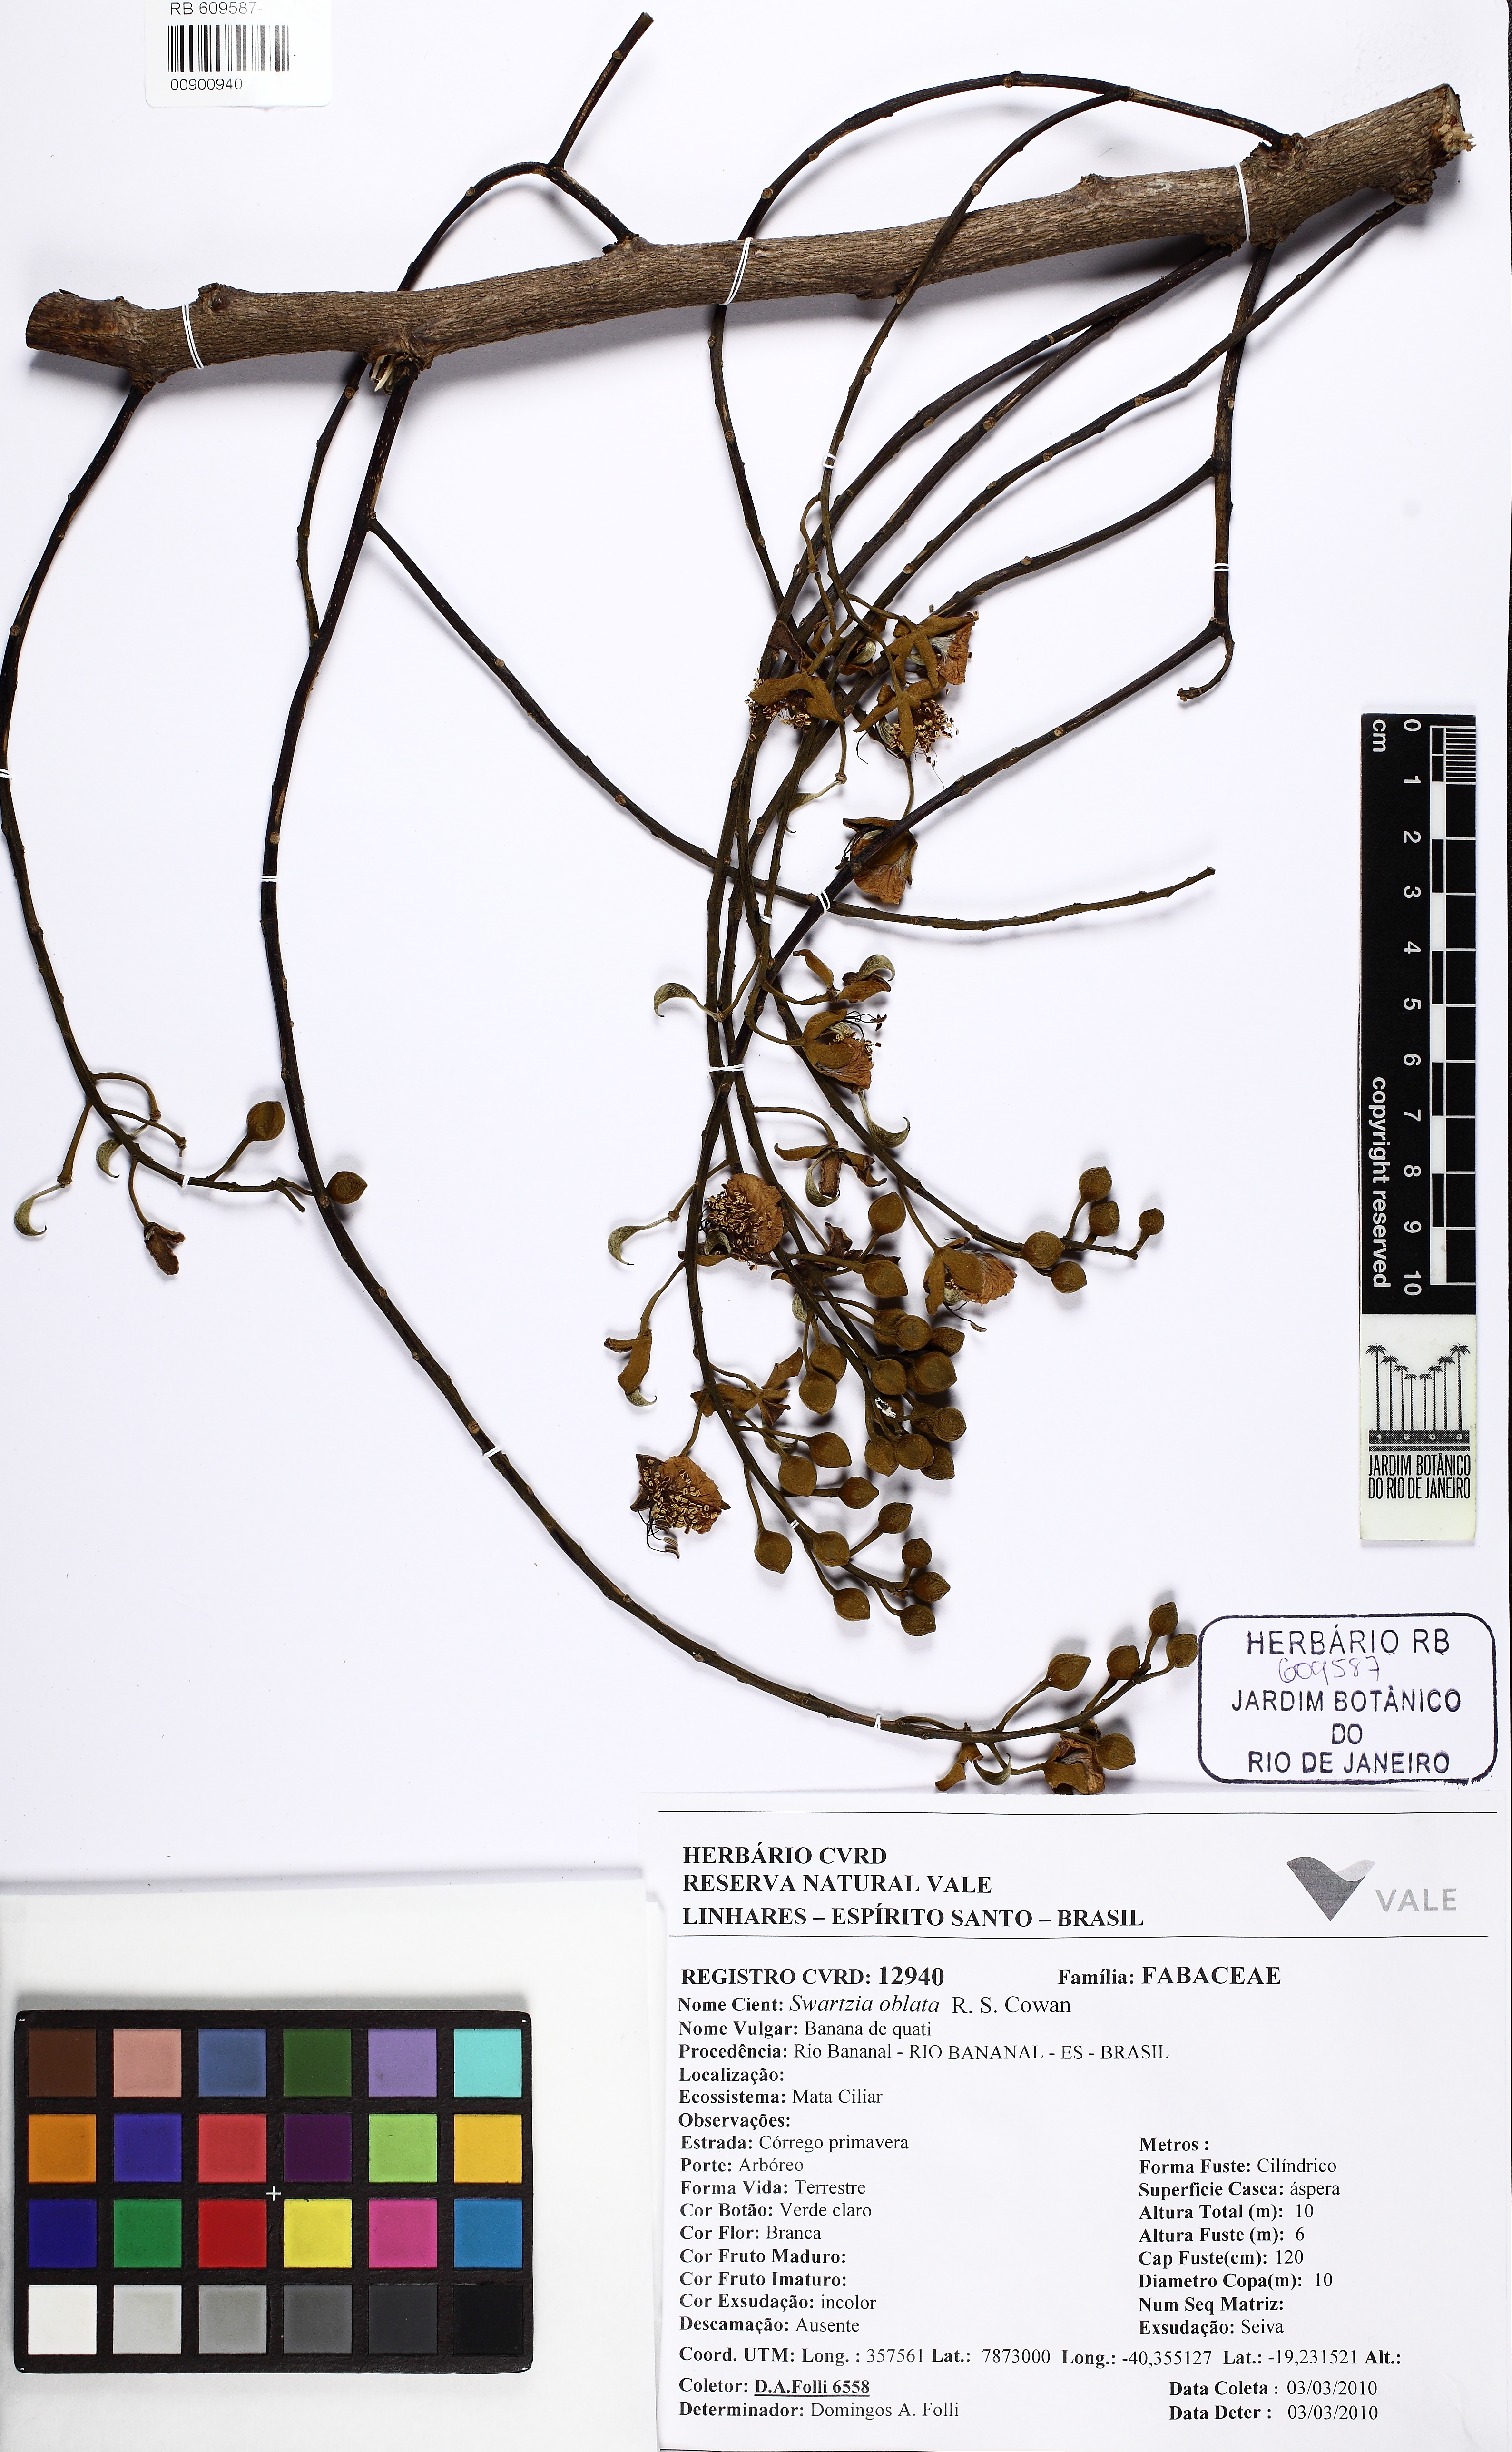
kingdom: Plantae
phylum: Tracheophyta
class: Magnoliopsida
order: Fabales
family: Fabaceae
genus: Swartzia
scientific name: Swartzia oblata
